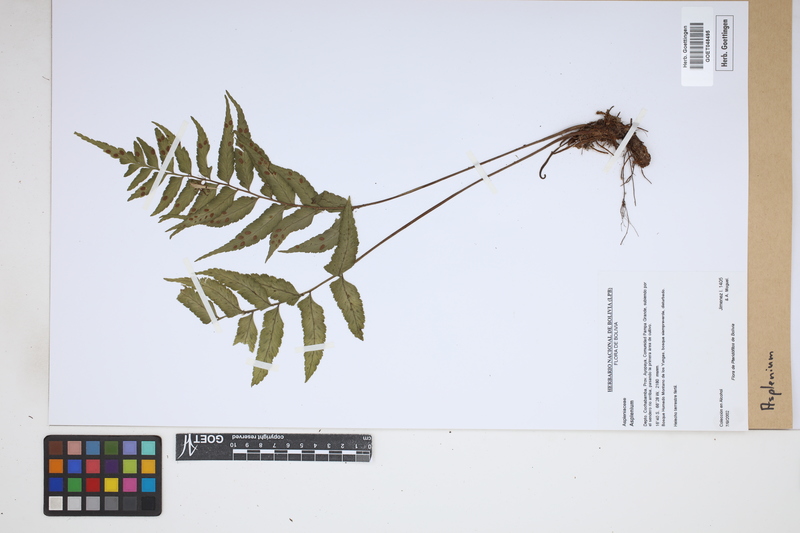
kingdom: Plantae
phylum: Tracheophyta
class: Polypodiopsida
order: Polypodiales
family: Aspleniaceae
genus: Asplenium
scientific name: Asplenium
